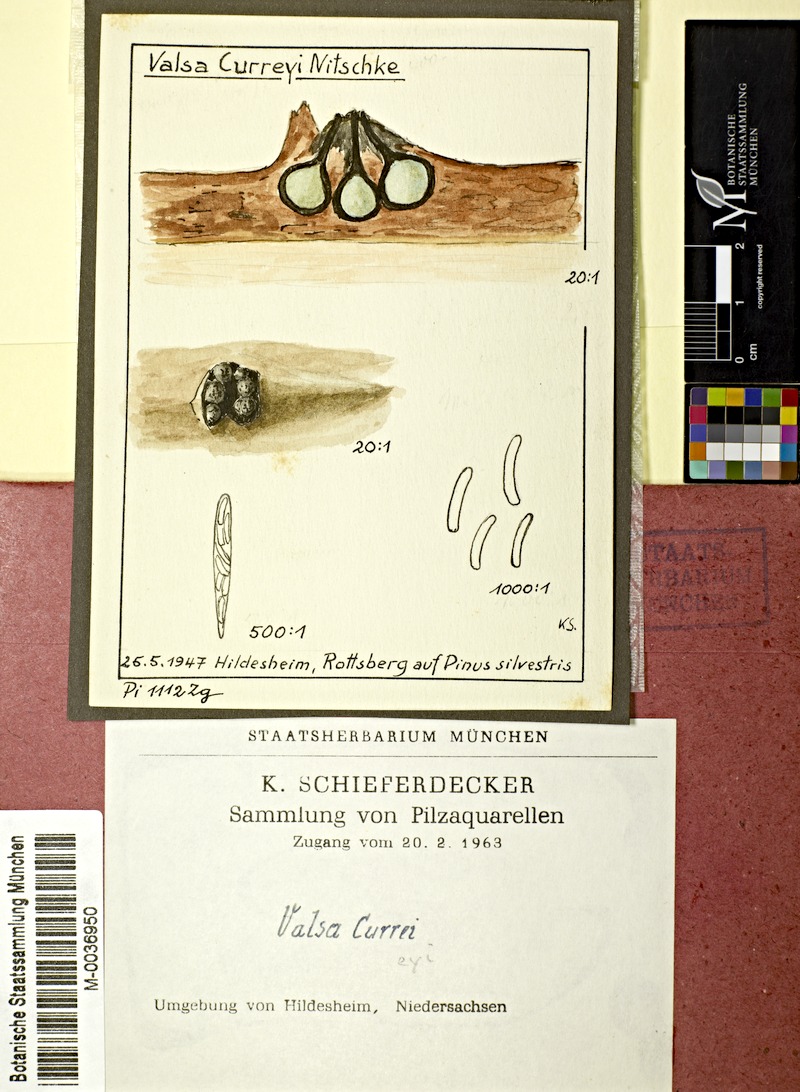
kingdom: Fungi
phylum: Ascomycota
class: Sordariomycetes
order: Diaporthales
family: Valsaceae
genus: Leucostoma
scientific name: Leucostoma curreyi
